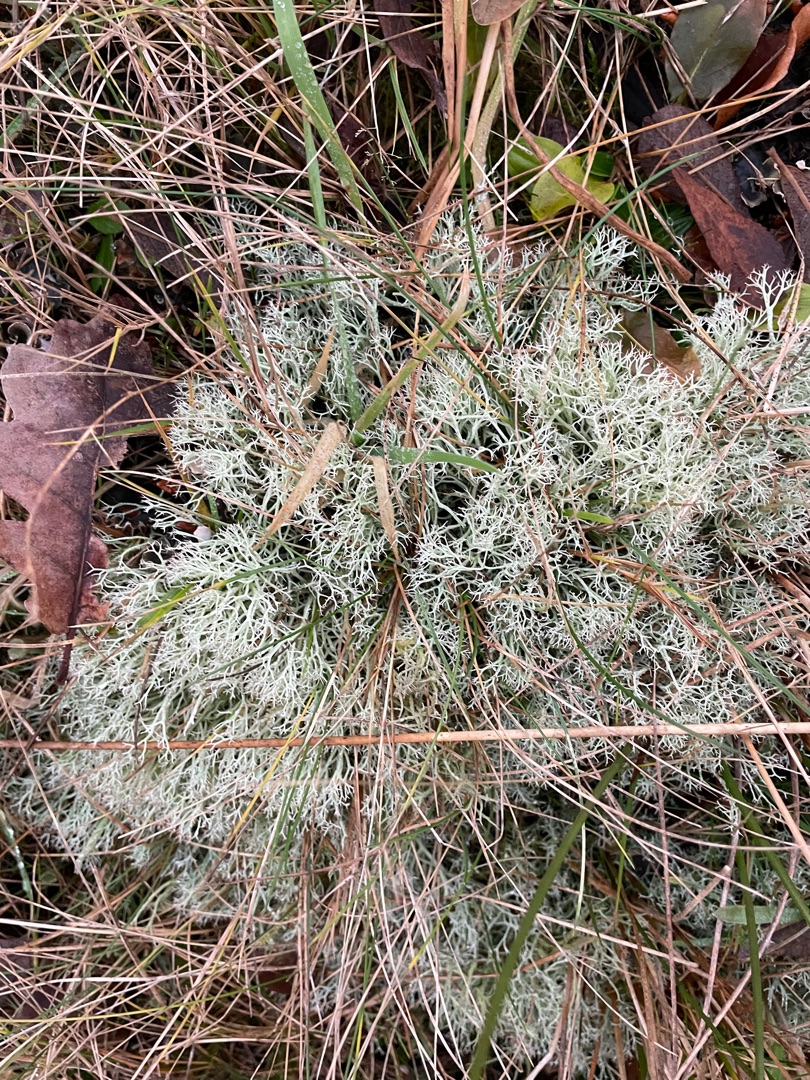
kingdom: Fungi
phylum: Ascomycota
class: Lecanoromycetes
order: Lecanorales
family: Cladoniaceae
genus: Cladonia
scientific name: Cladonia rangiformis
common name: Spættet bægerlav
